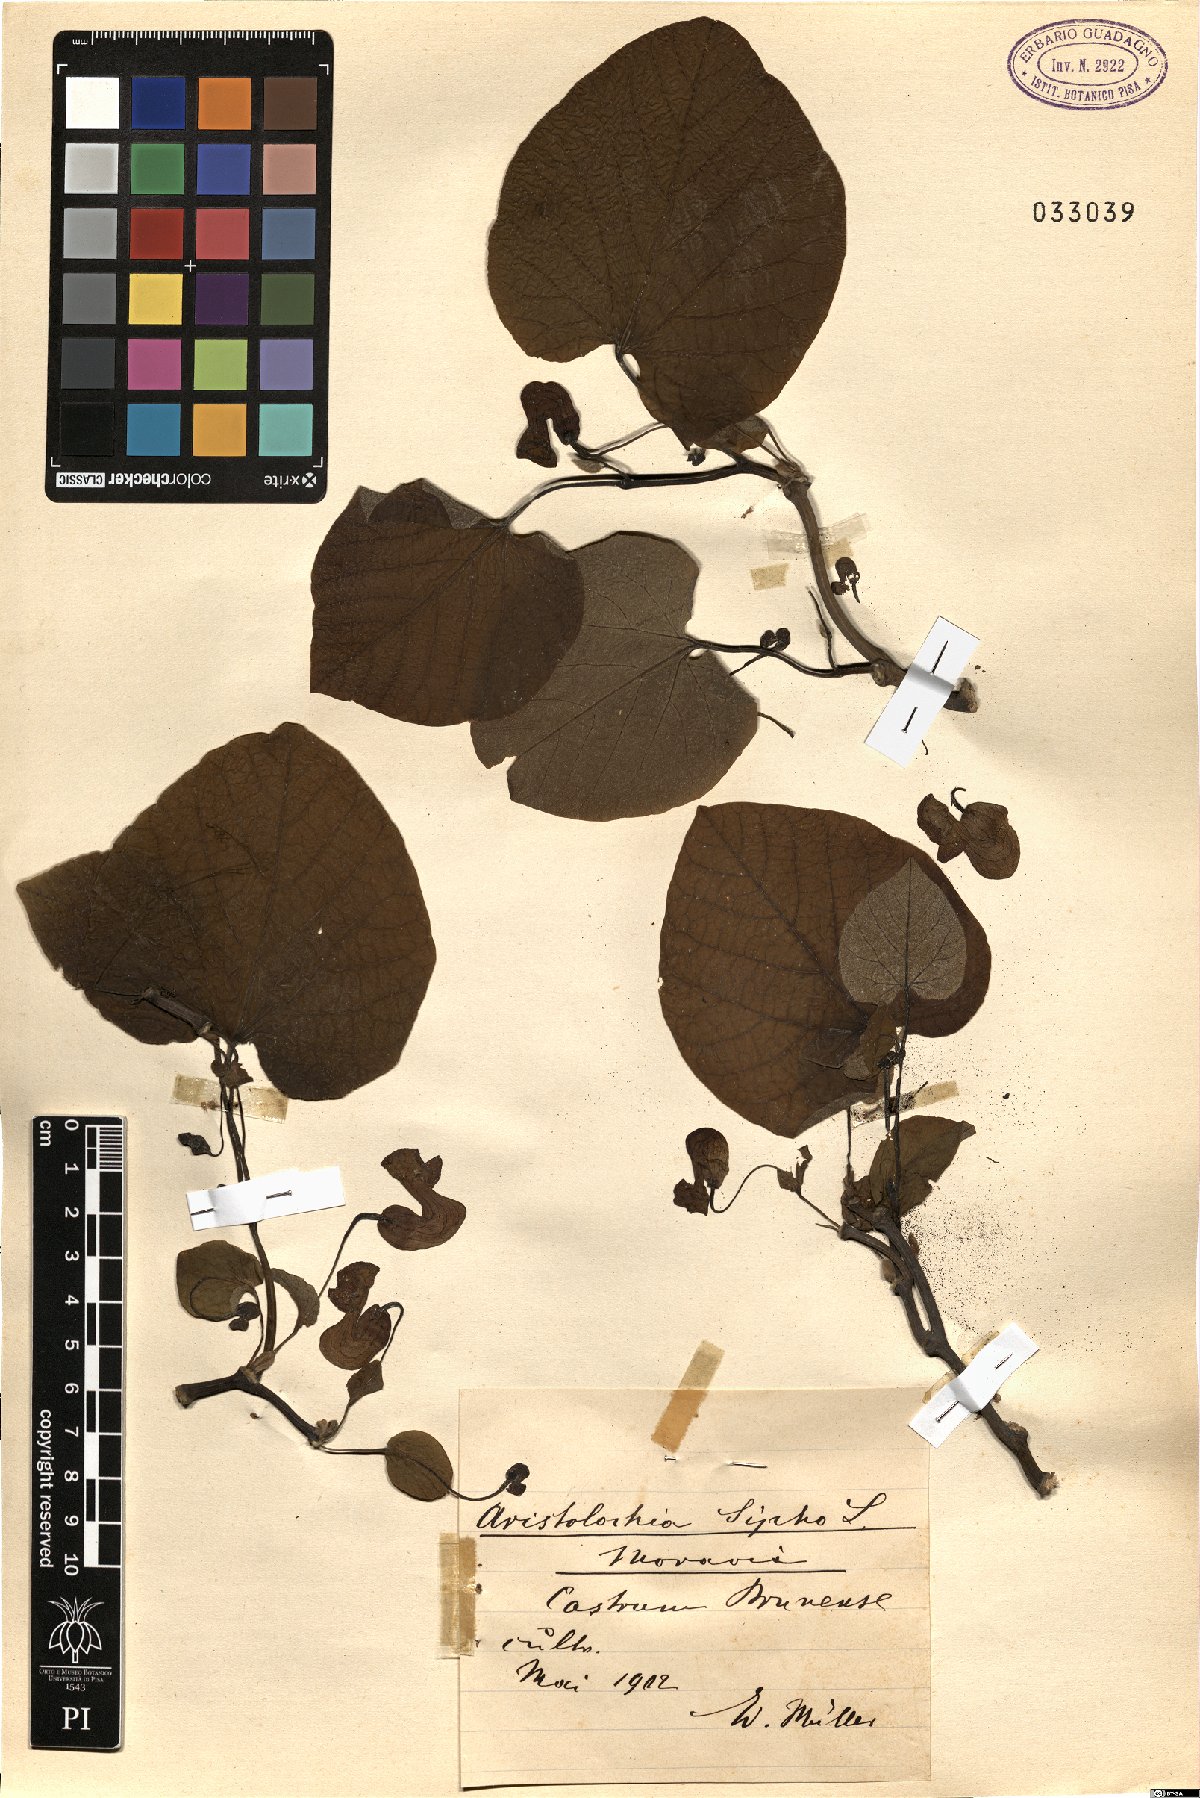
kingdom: Plantae
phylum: Tracheophyta
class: Magnoliopsida
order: Piperales
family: Aristolochiaceae
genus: Isotrema
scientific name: Isotrema macrophyllum
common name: Dutchman's-pipe
